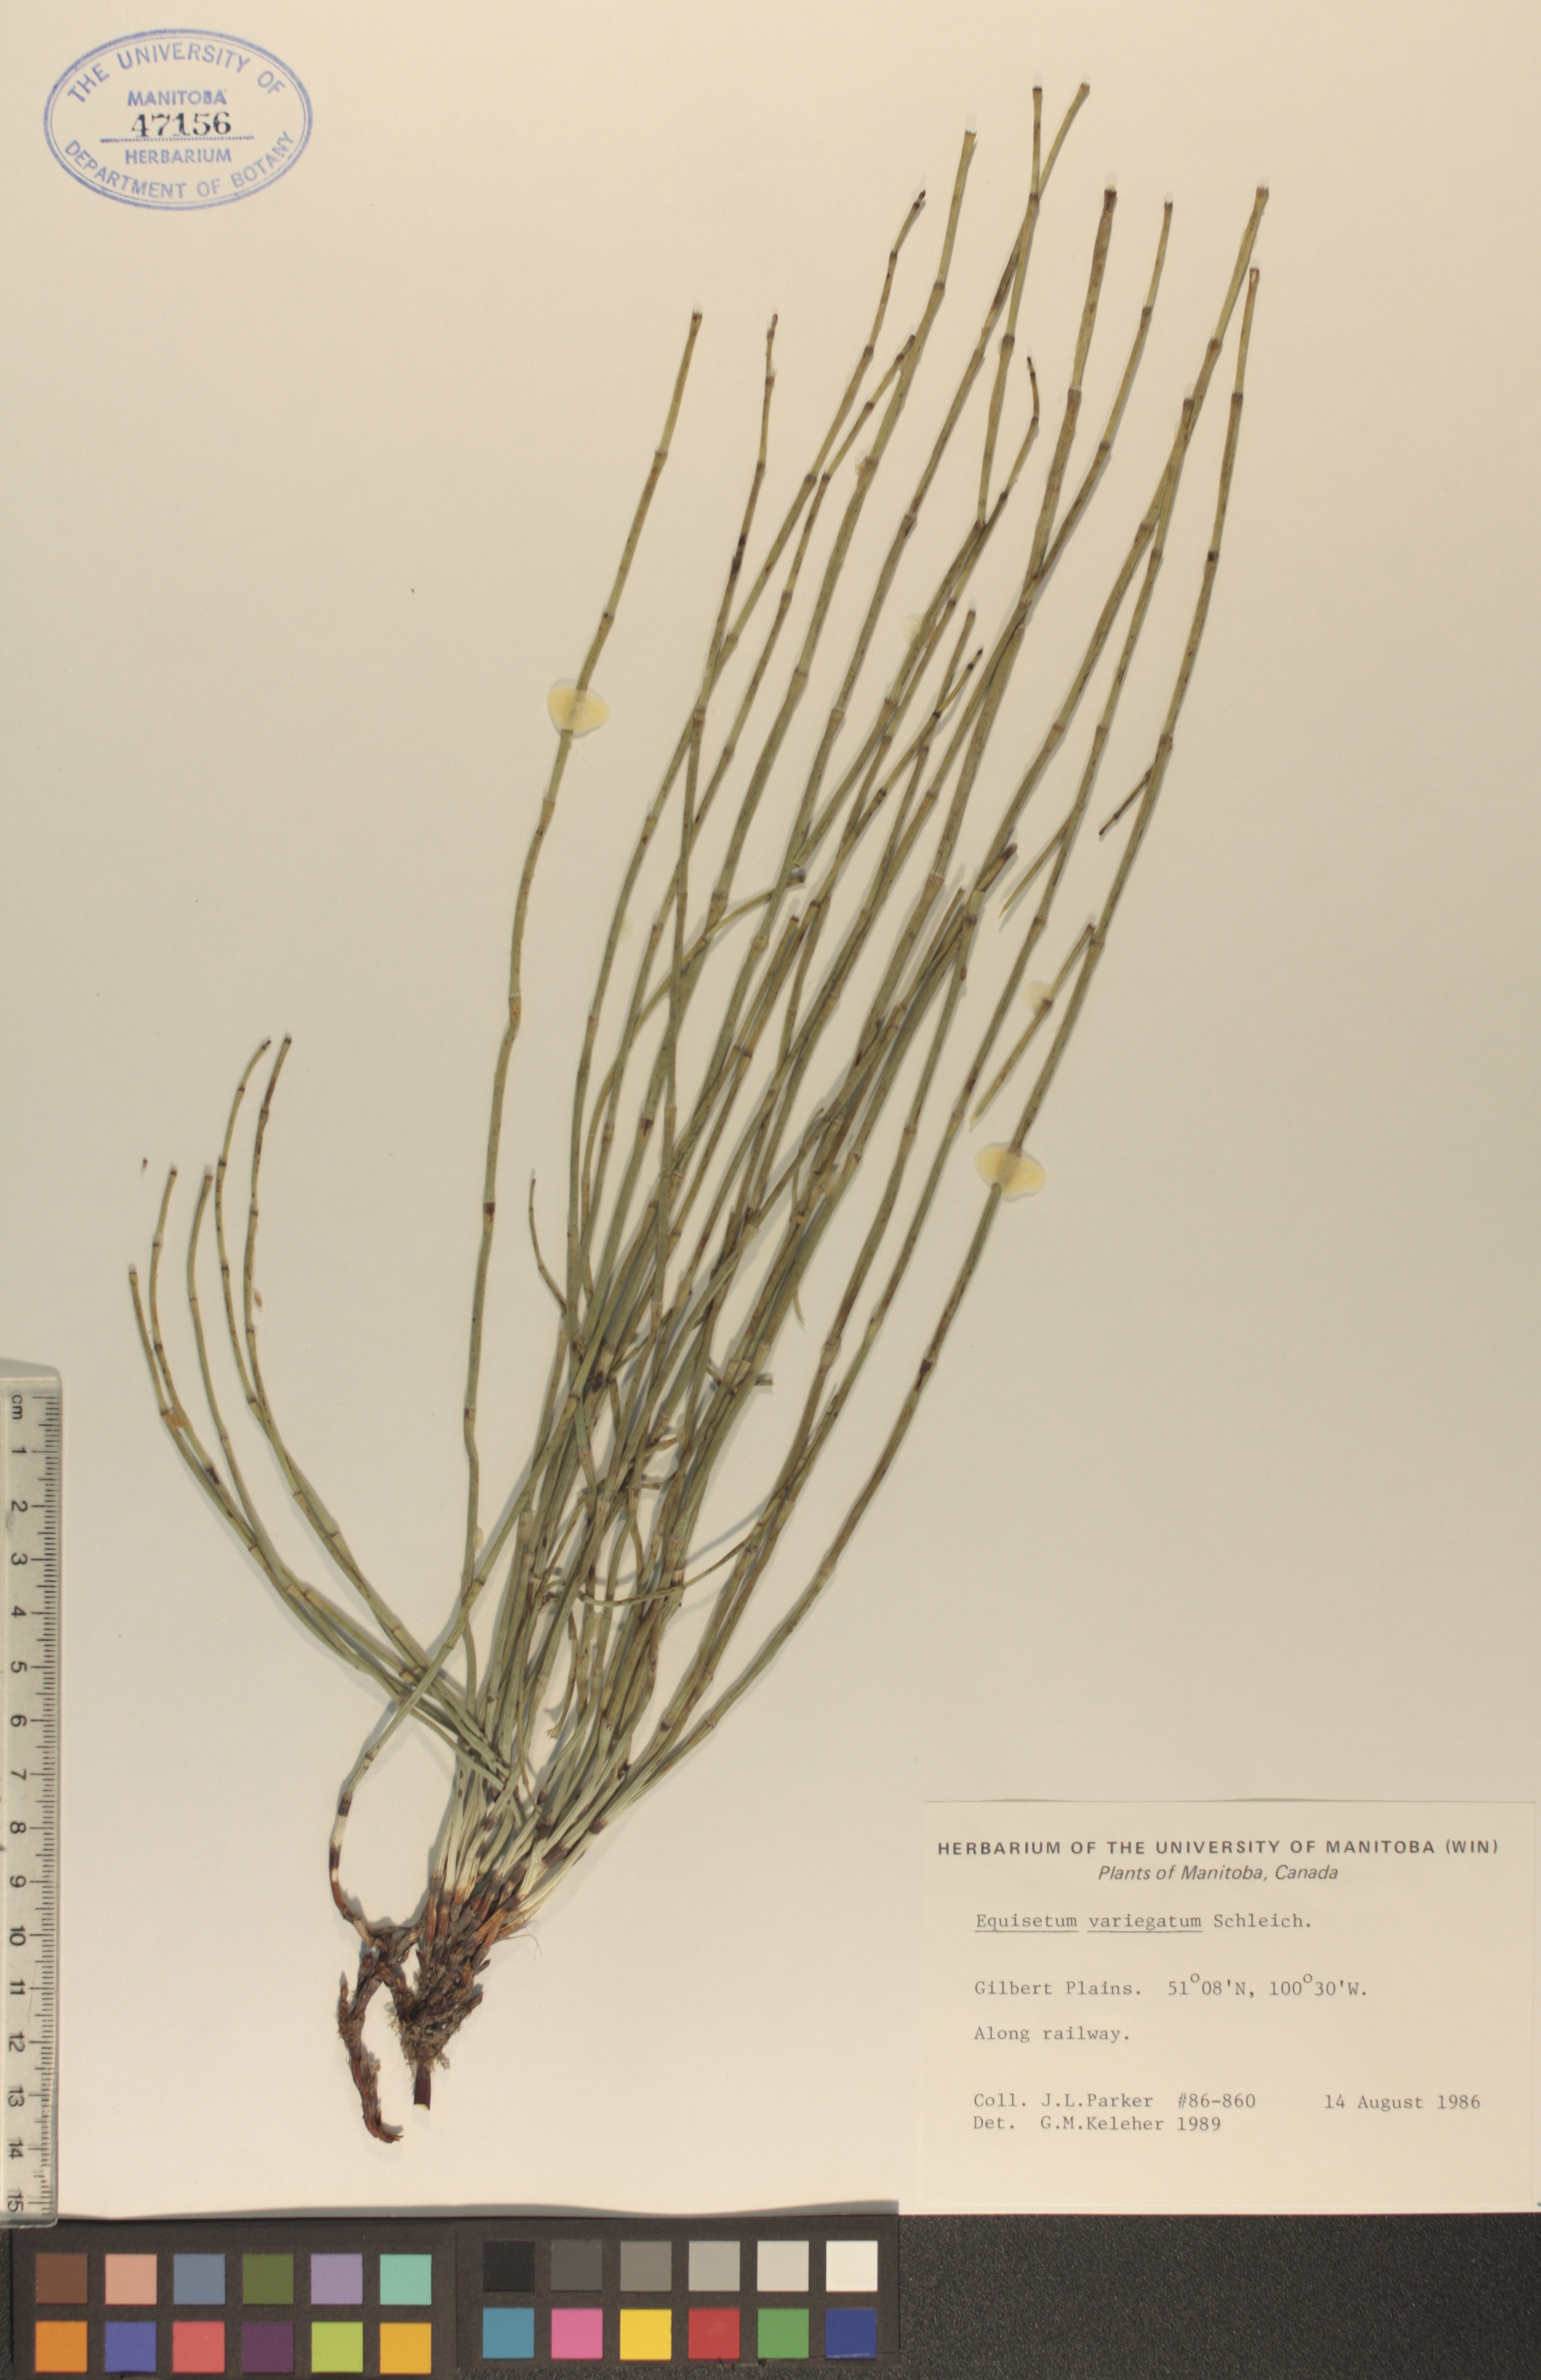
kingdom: Plantae
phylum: Tracheophyta
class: Polypodiopsida
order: Equisetales
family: Equisetaceae
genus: Equisetum
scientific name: Equisetum variegatum
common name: Variegated horsetail
